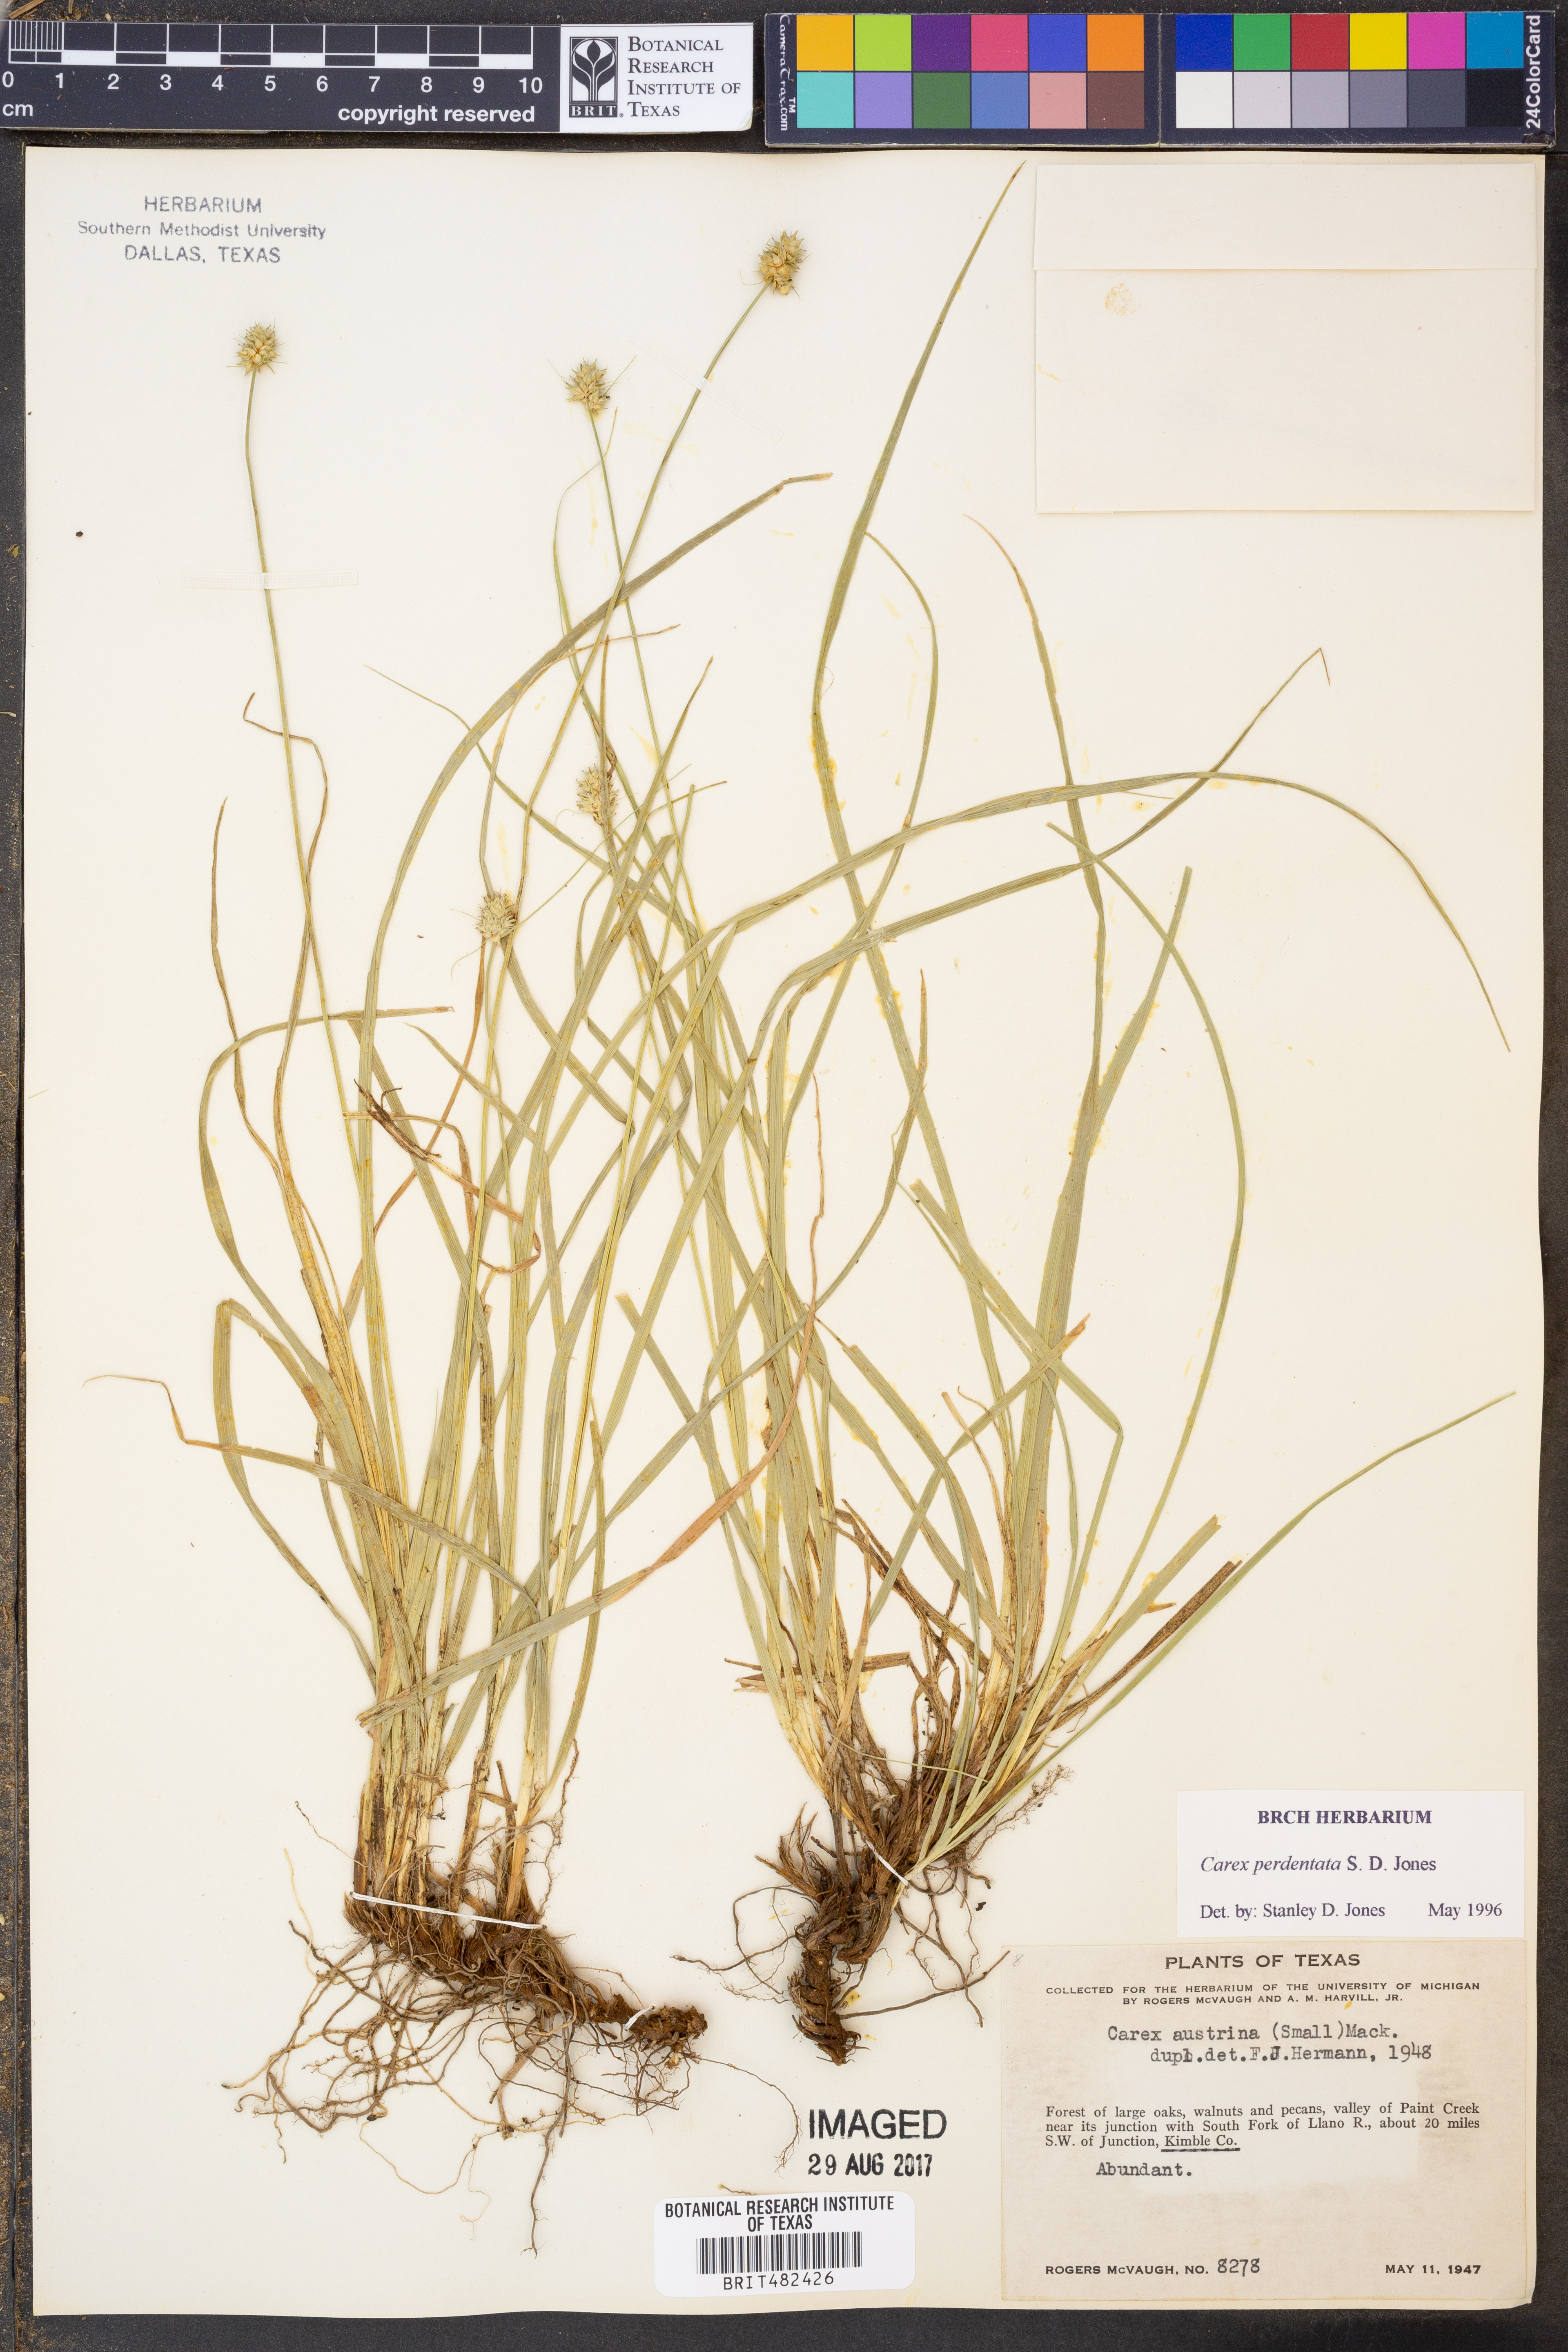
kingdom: Plantae
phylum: Tracheophyta
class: Liliopsida
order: Poales
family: Cyperaceae
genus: Carex
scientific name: Carex perdentata
